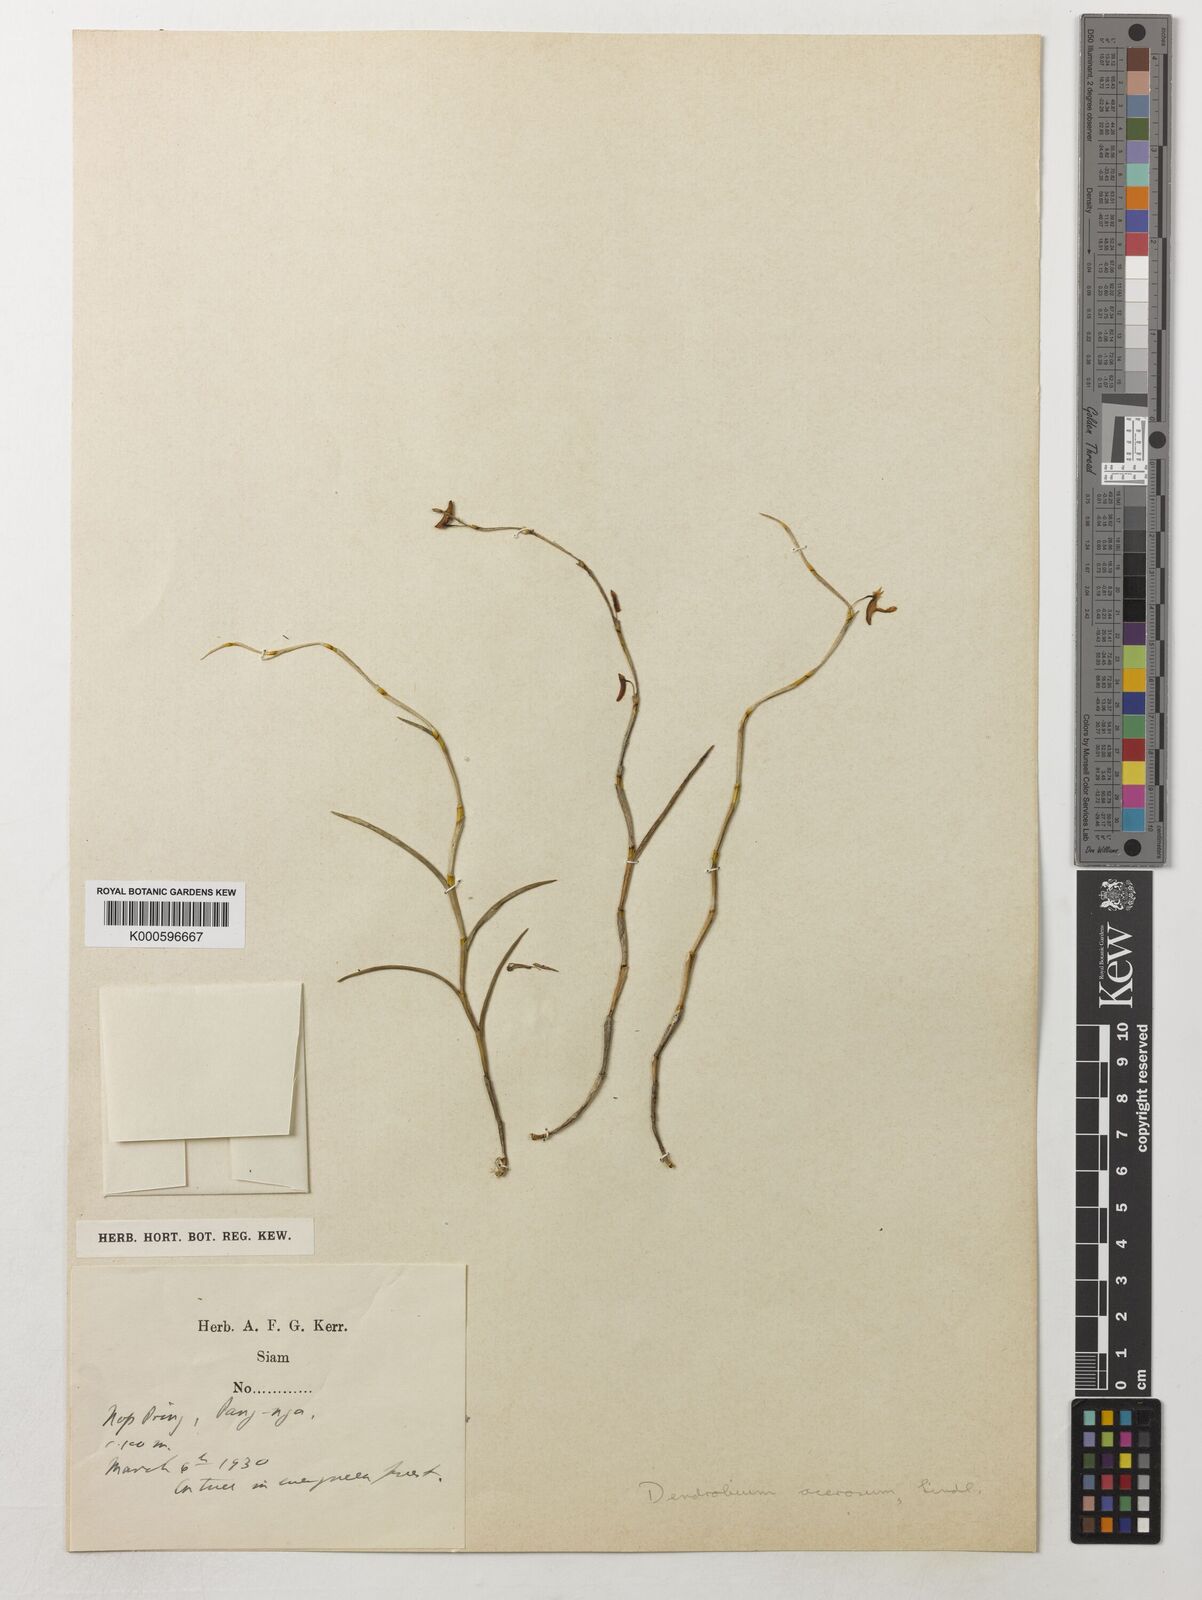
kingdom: Plantae
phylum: Tracheophyta
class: Liliopsida
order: Asparagales
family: Orchidaceae
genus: Dendrobium
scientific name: Dendrobium acerosum
